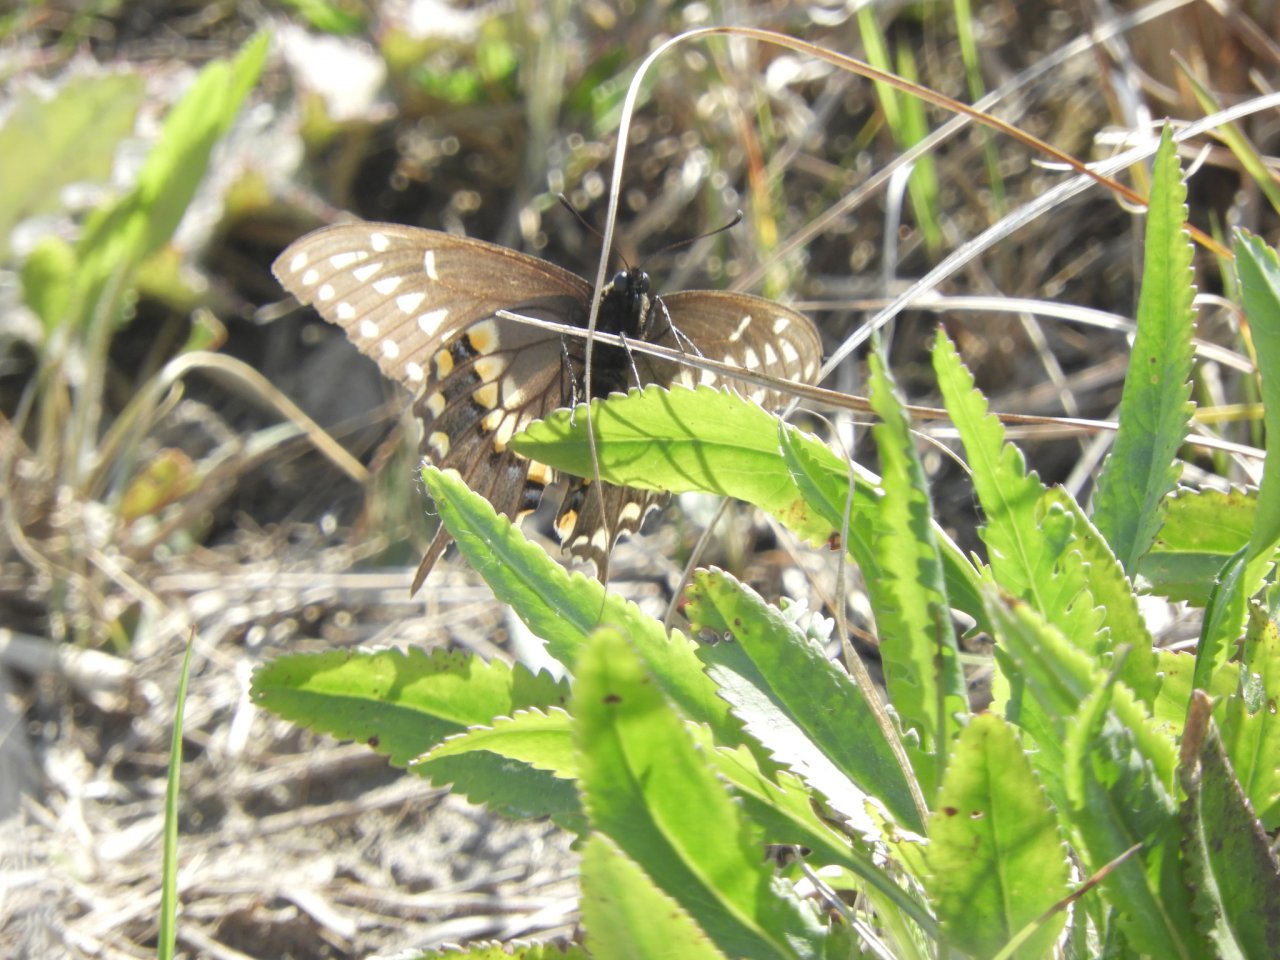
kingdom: Animalia
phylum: Arthropoda
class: Insecta
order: Lepidoptera
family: Papilionidae
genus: Papilio
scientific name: Papilio polyxenes
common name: Black Swallowtail
